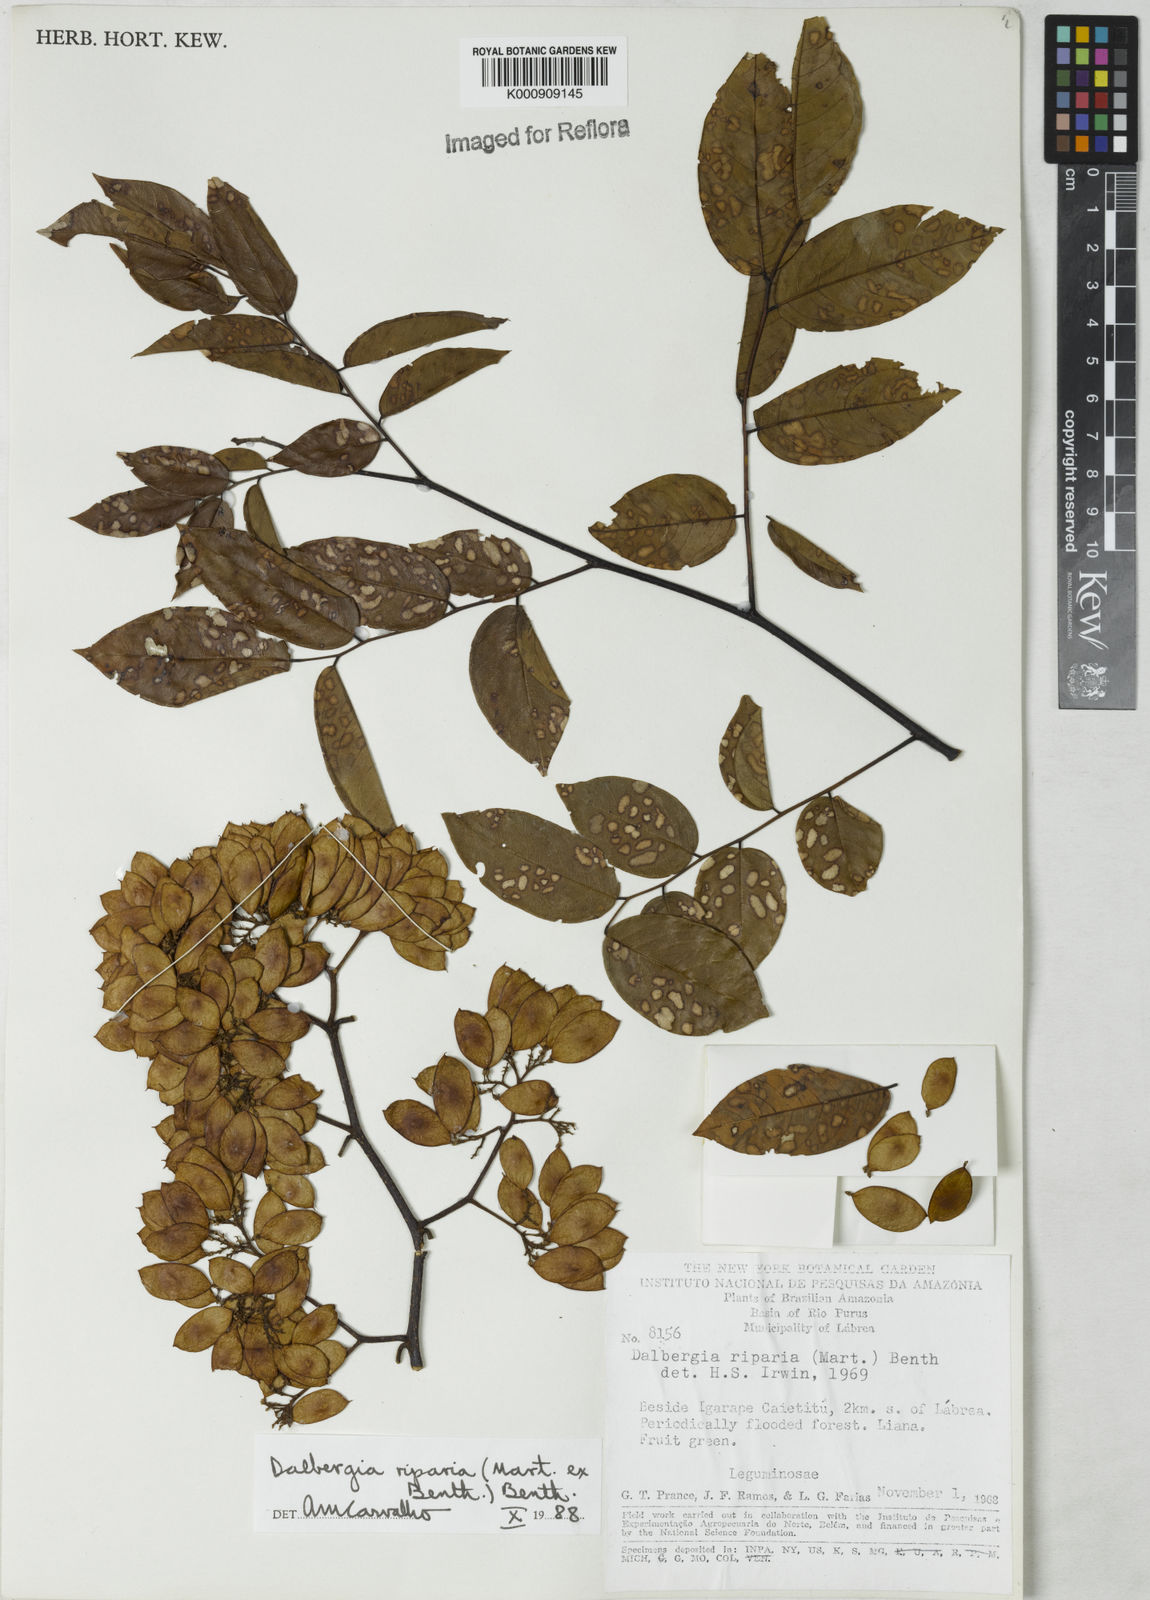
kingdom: Plantae
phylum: Tracheophyta
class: Magnoliopsida
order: Fabales
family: Fabaceae
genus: Dalbergia
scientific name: Dalbergia riparia
